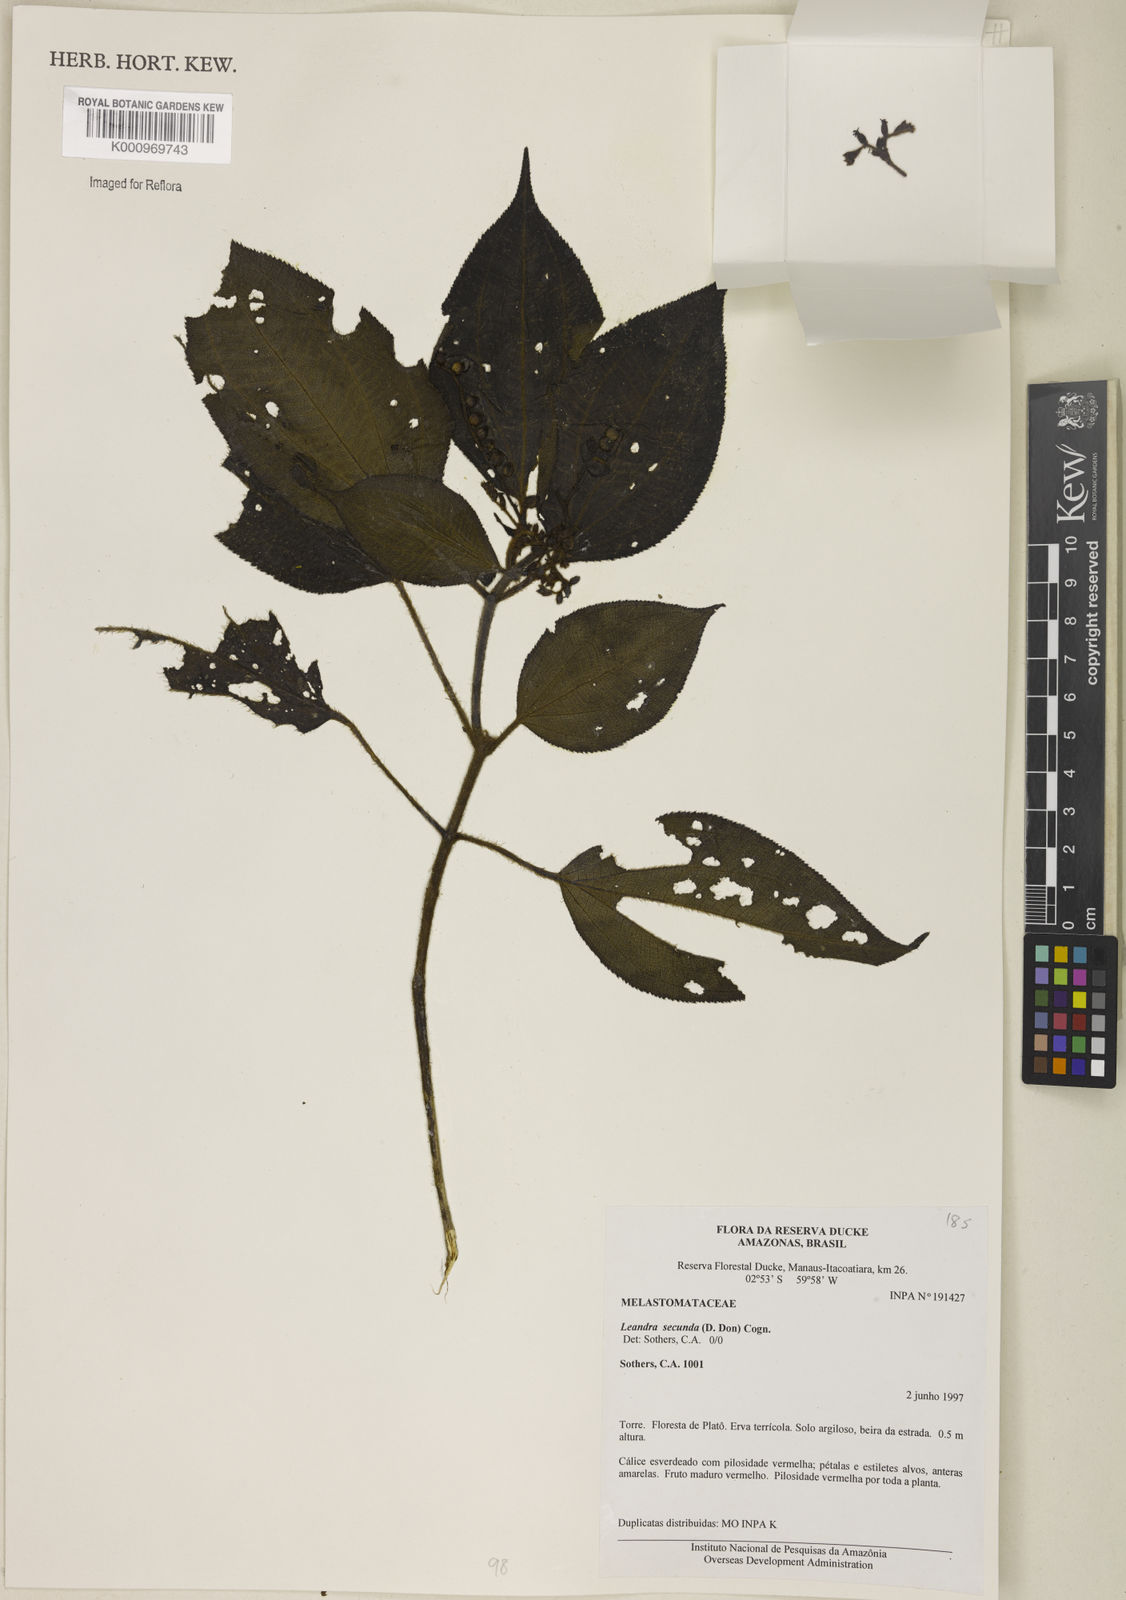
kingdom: Plantae
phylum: Tracheophyta
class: Magnoliopsida
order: Myrtales
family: Melastomataceae
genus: Miconia
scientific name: Miconia neosecunda
